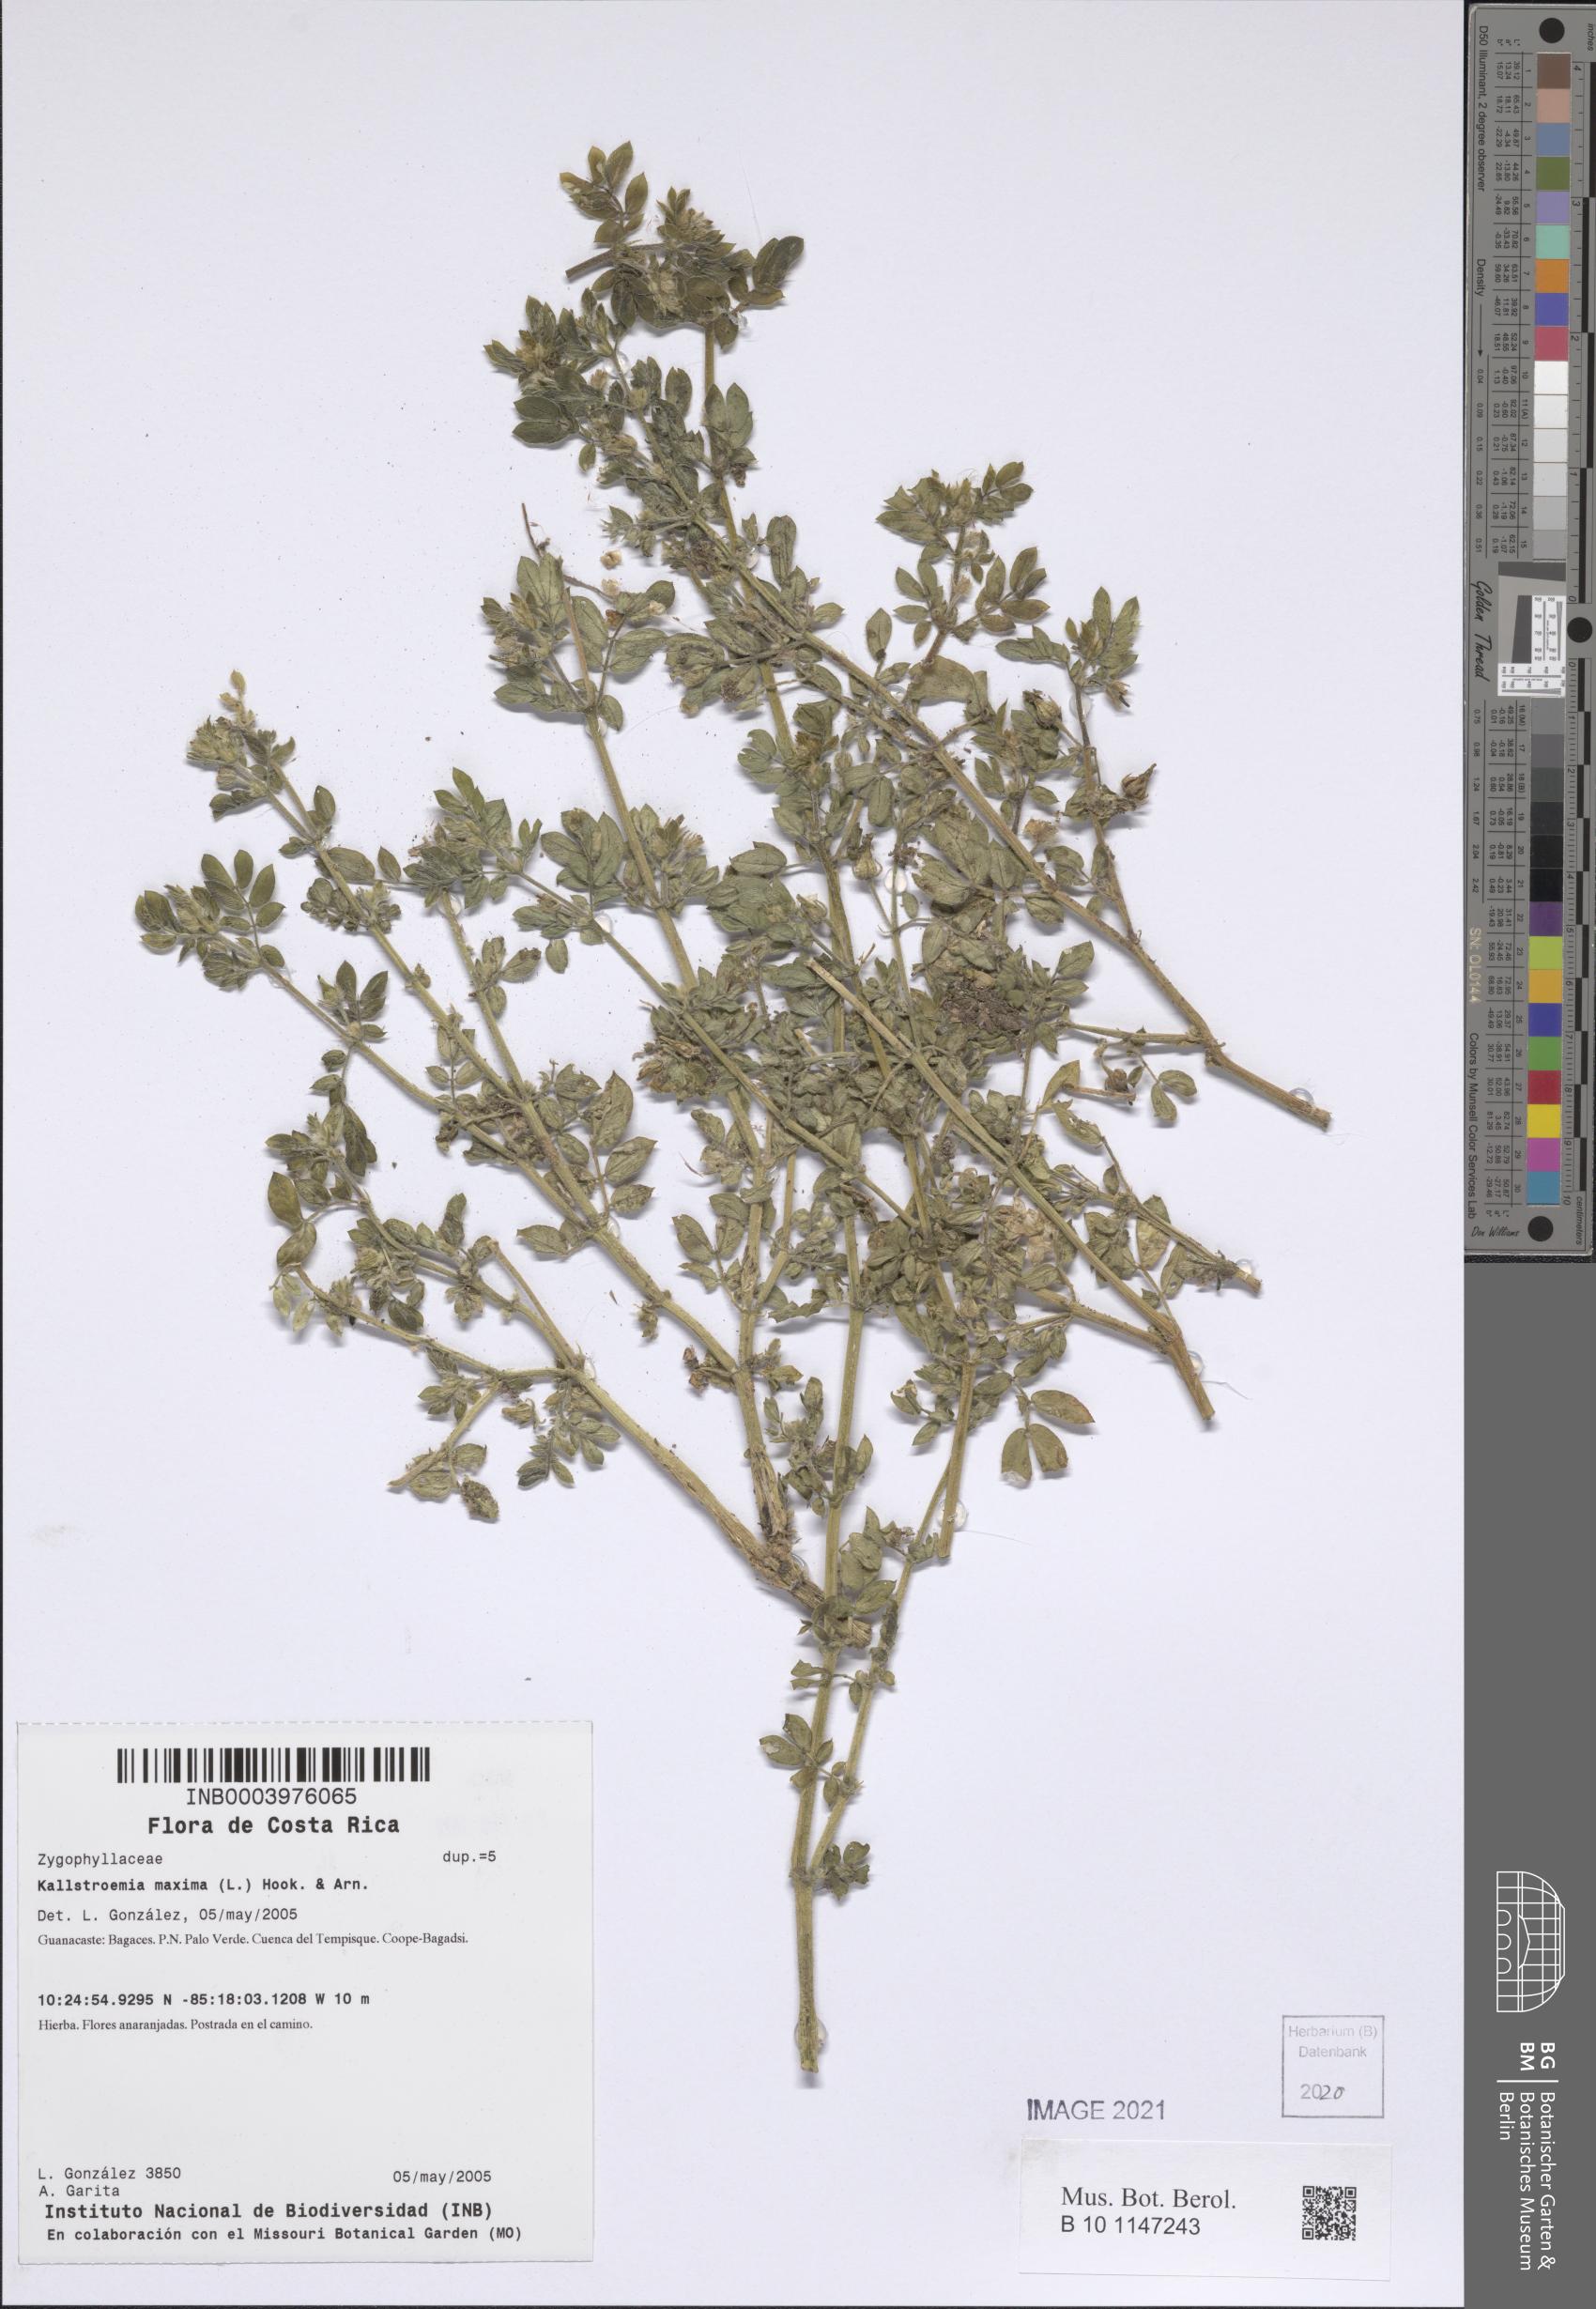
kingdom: Plantae
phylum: Tracheophyta
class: Magnoliopsida
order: Zygophyllales
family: Zygophyllaceae
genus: Kallstroemia
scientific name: Kallstroemia maxima
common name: Big caltropa
